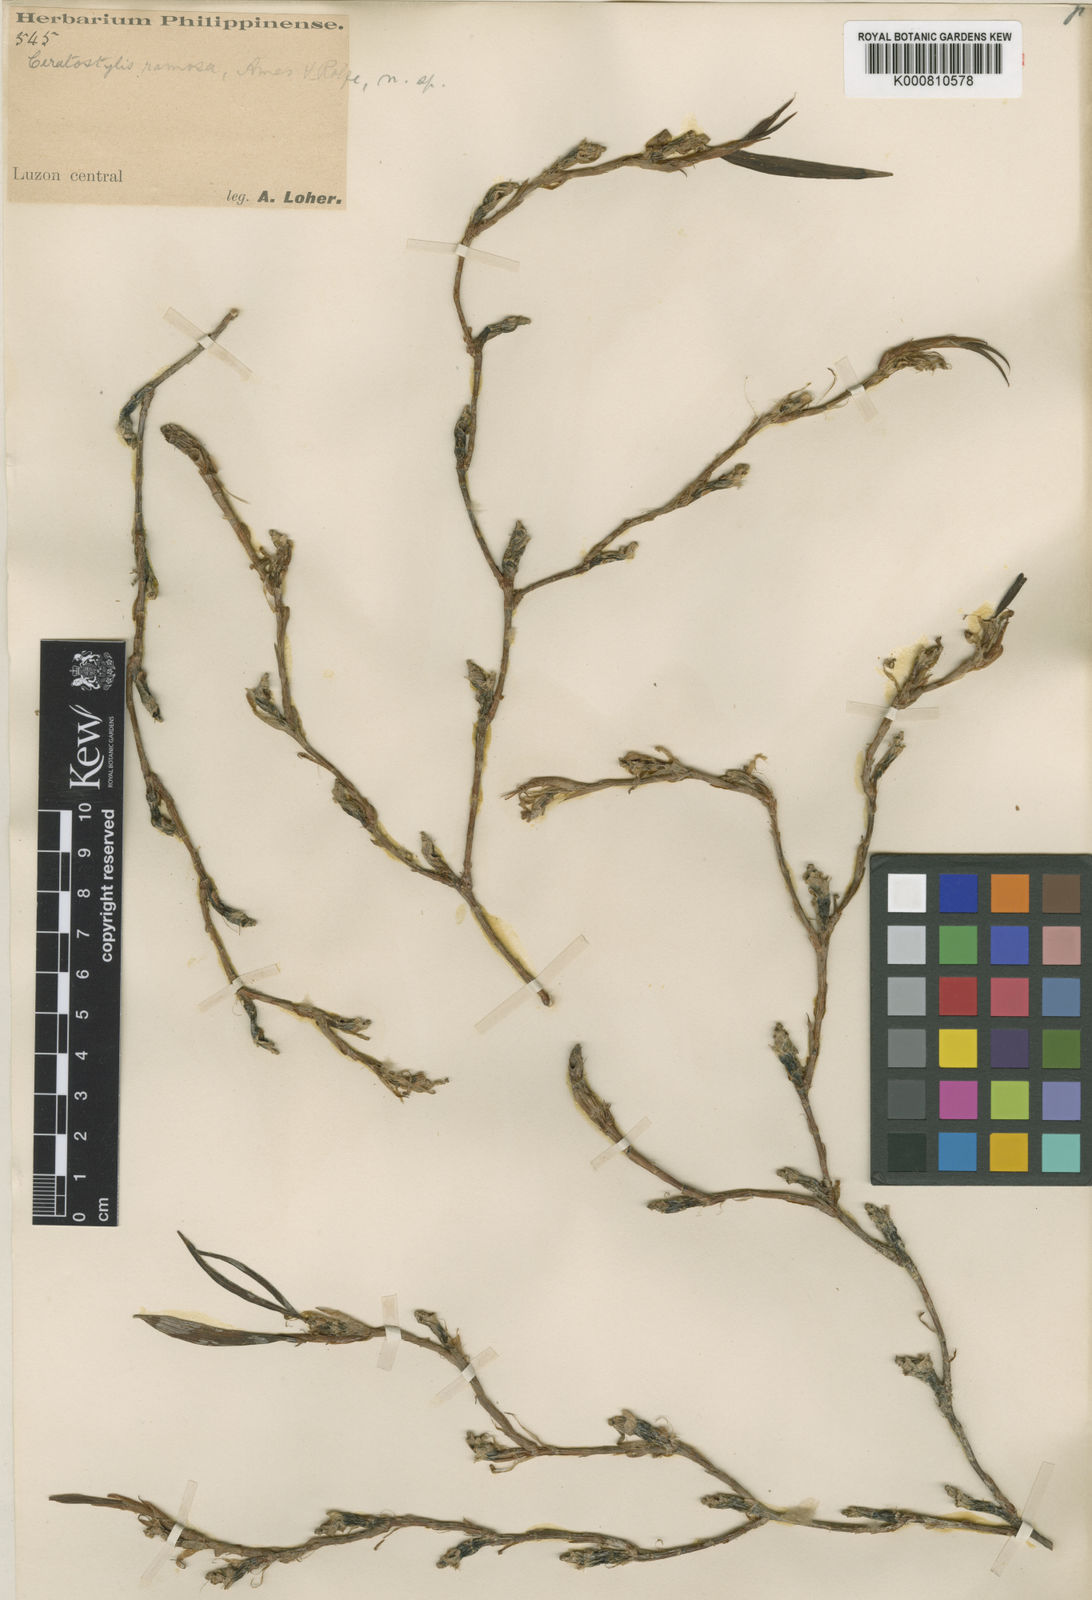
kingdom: Plantae
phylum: Tracheophyta
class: Liliopsida
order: Asparagales
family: Orchidaceae
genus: Ceratostylis
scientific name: Ceratostylis ramosa
